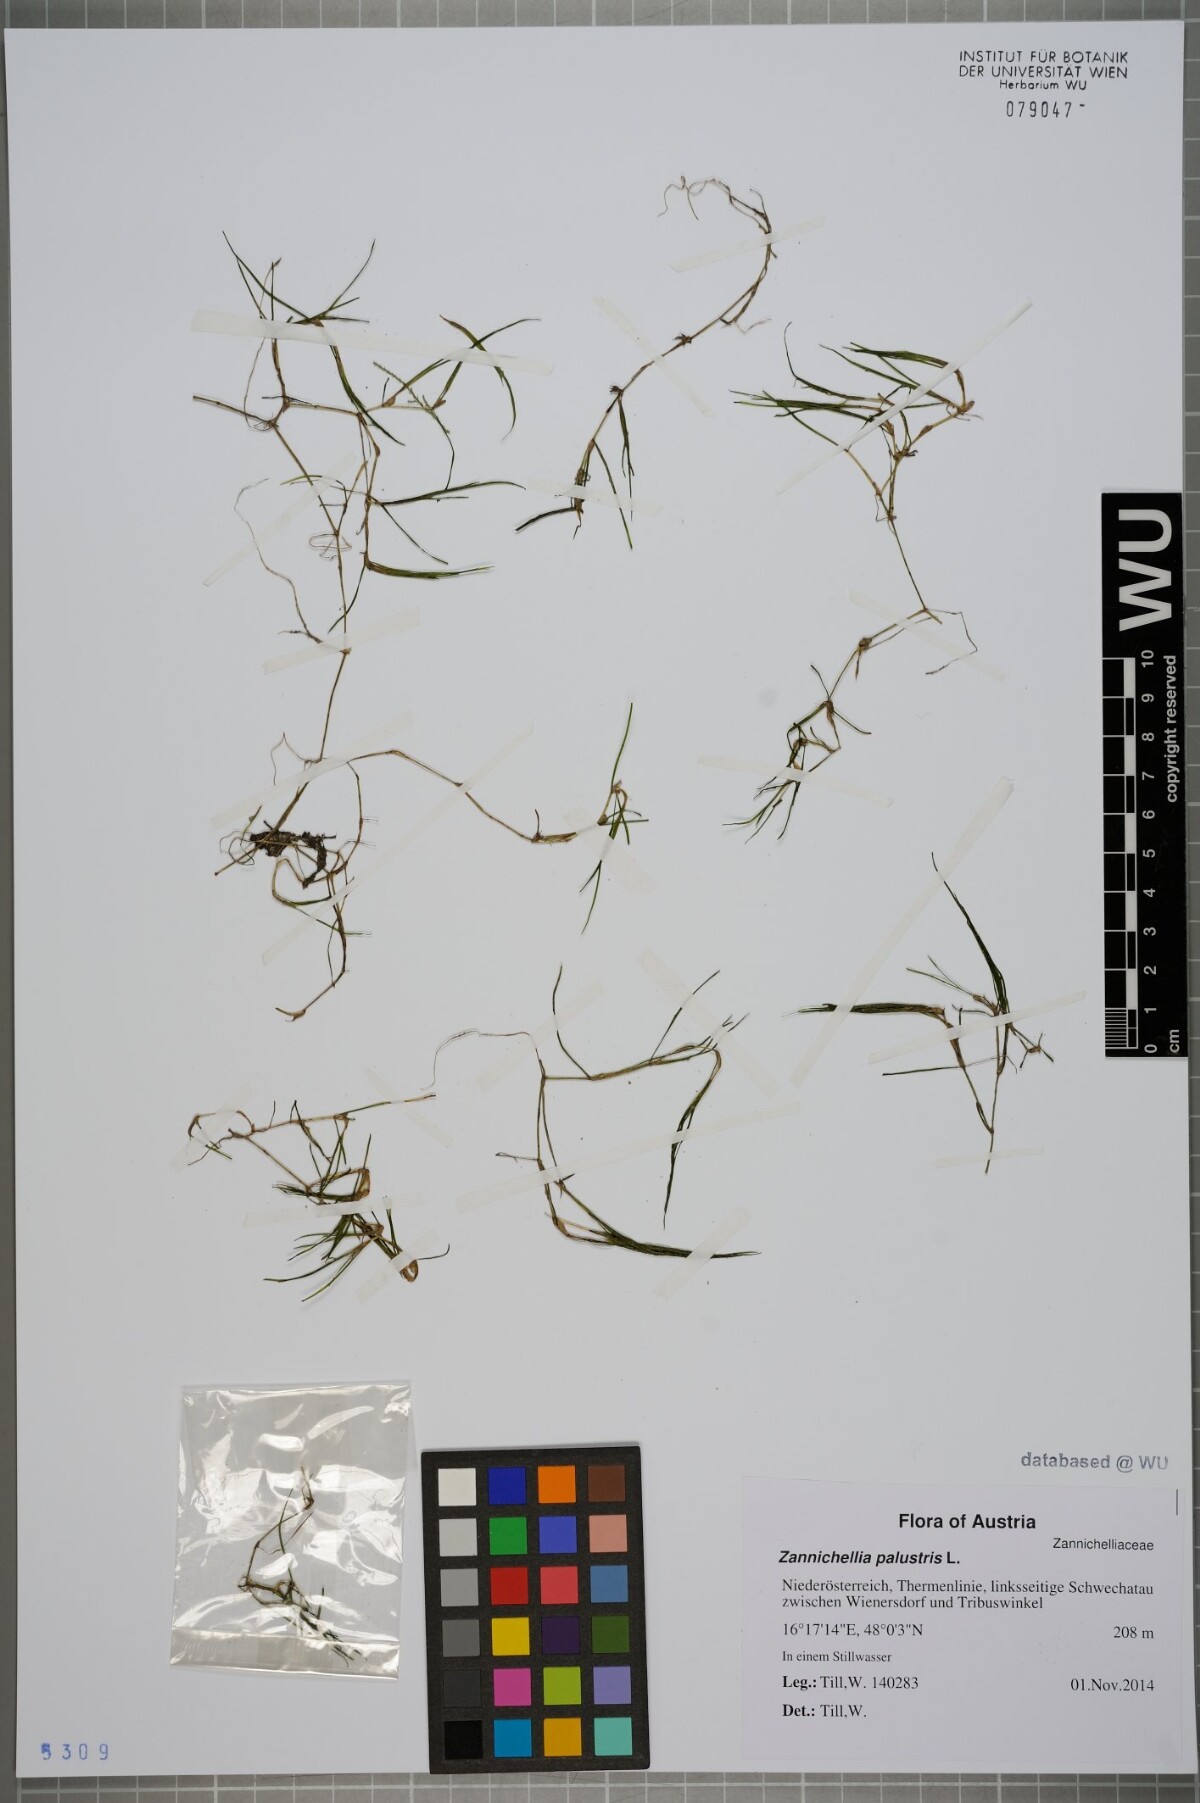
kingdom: Plantae
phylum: Tracheophyta
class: Liliopsida
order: Alismatales
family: Potamogetonaceae
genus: Zannichellia
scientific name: Zannichellia palustris
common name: Horned pondweed
